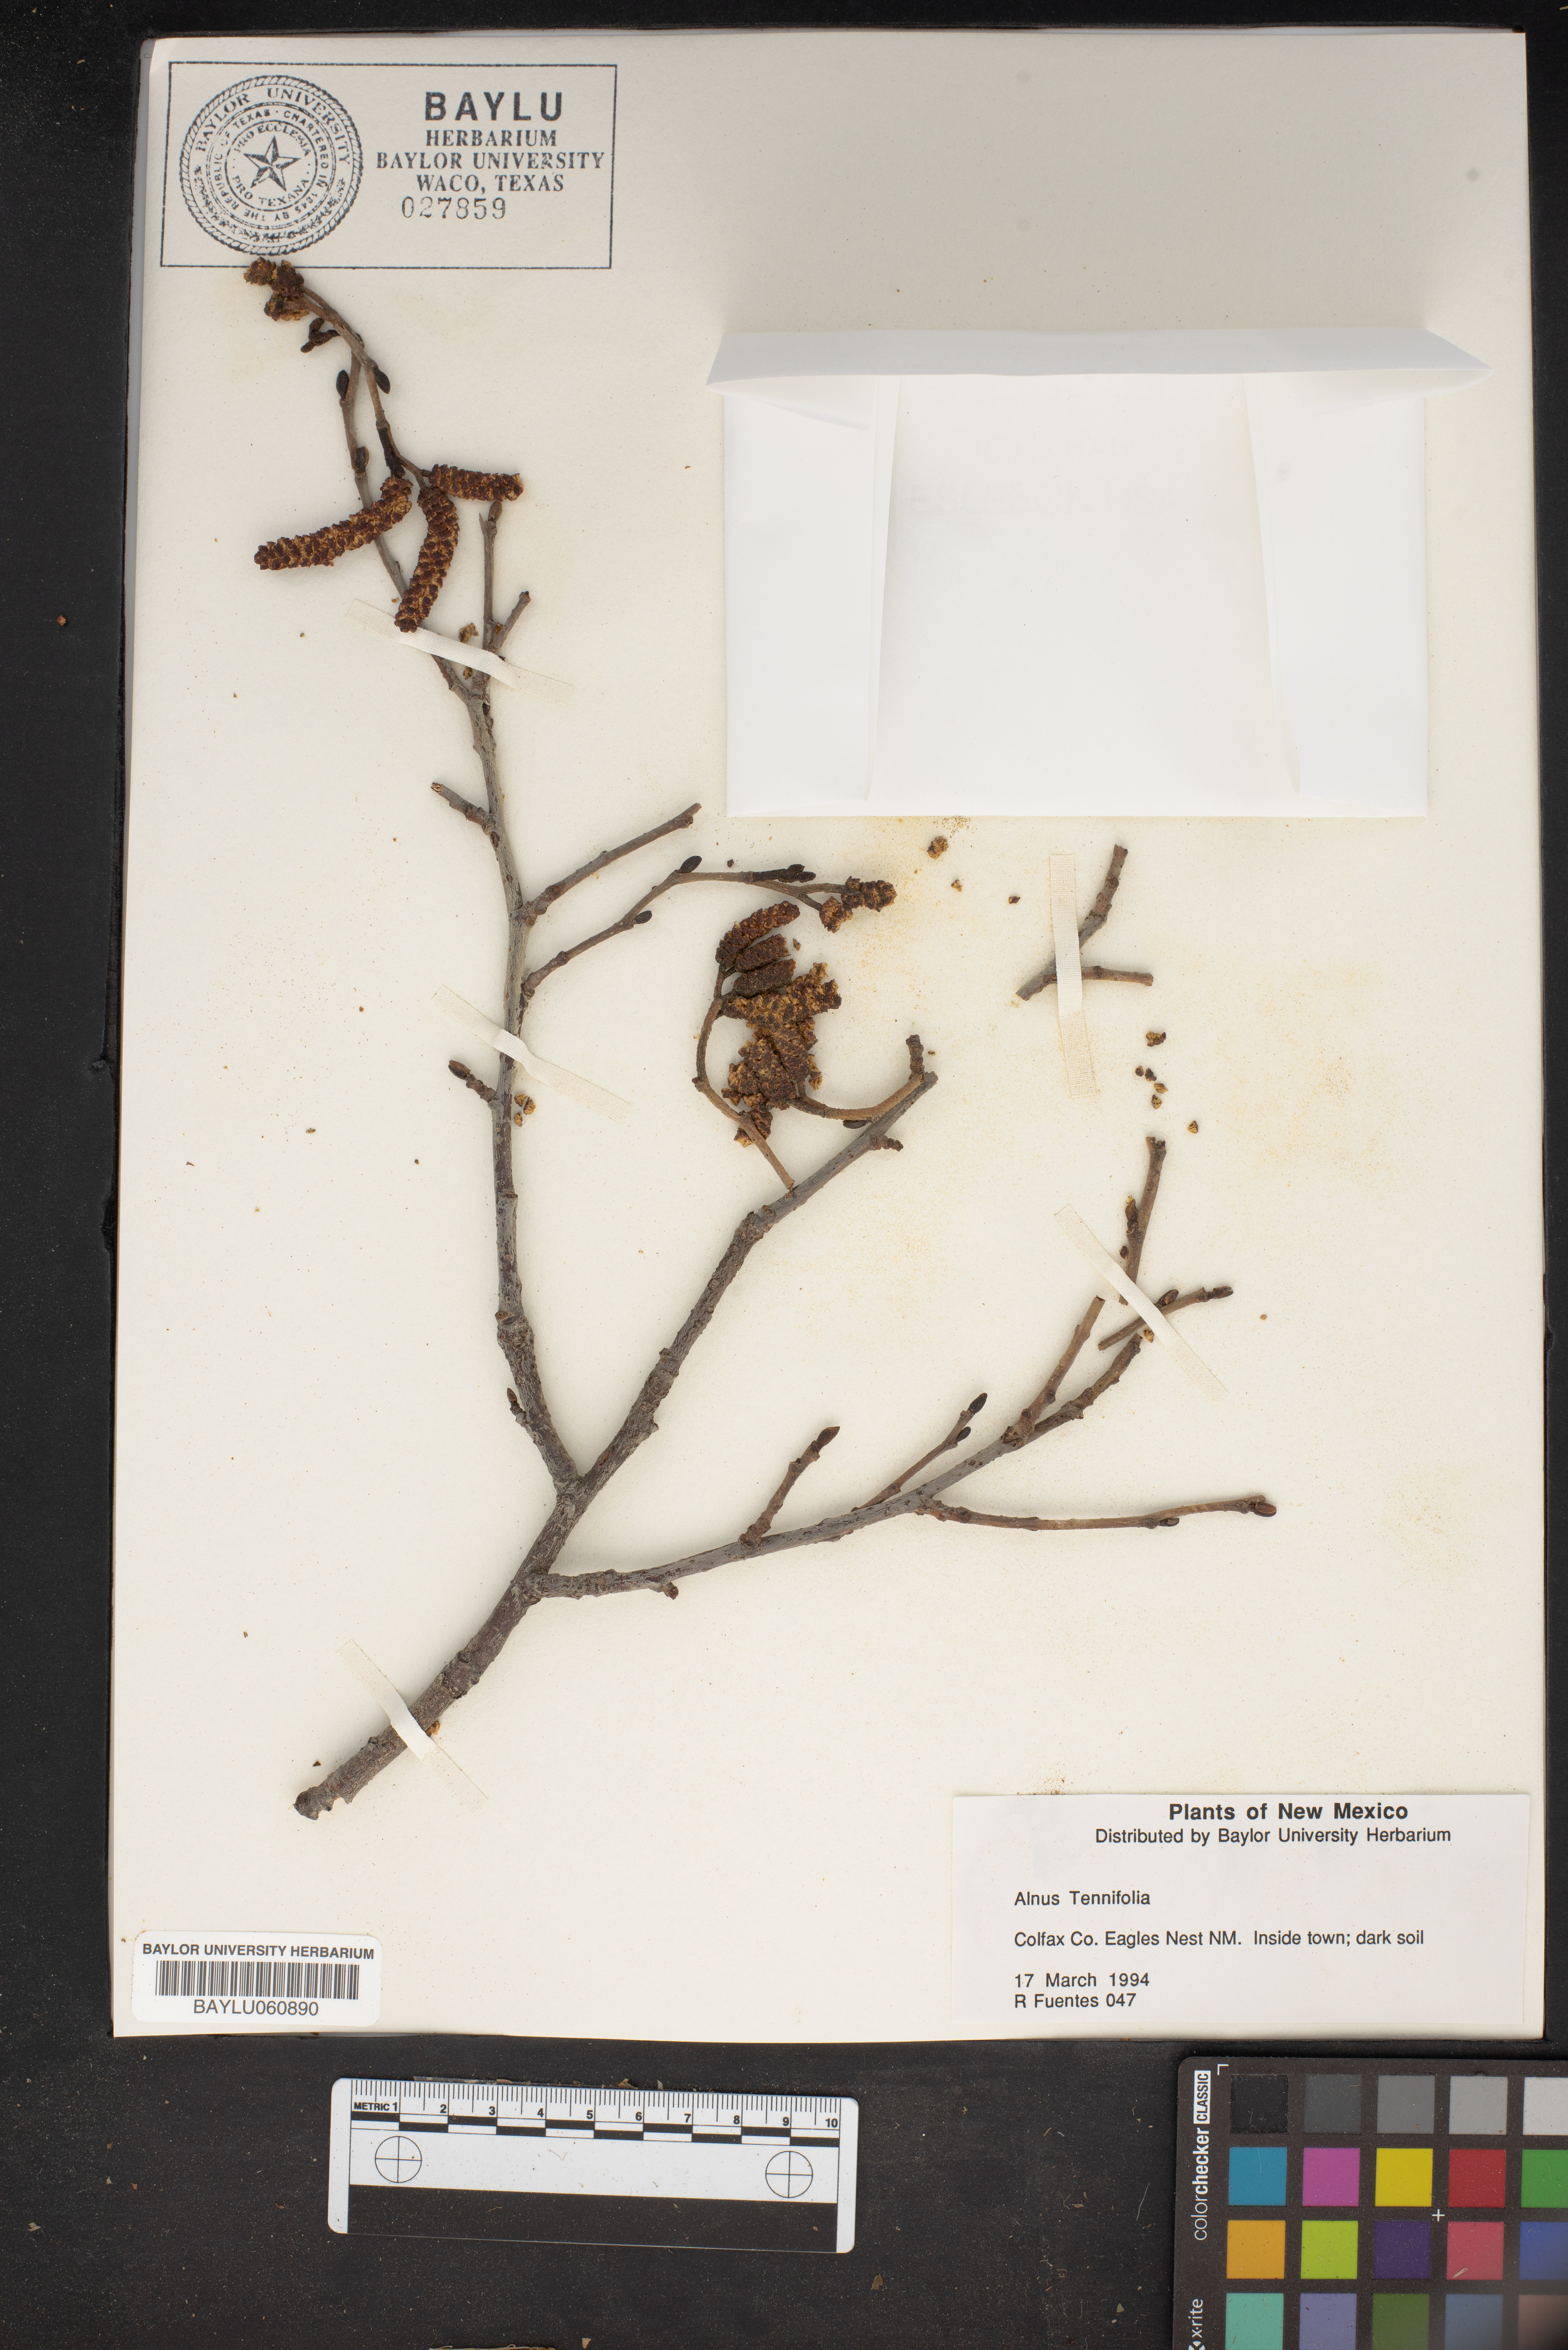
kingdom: Plantae
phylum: Tracheophyta
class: Magnoliopsida
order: Fagales
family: Betulaceae
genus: Alnus
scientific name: Alnus incana
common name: Grey alder
